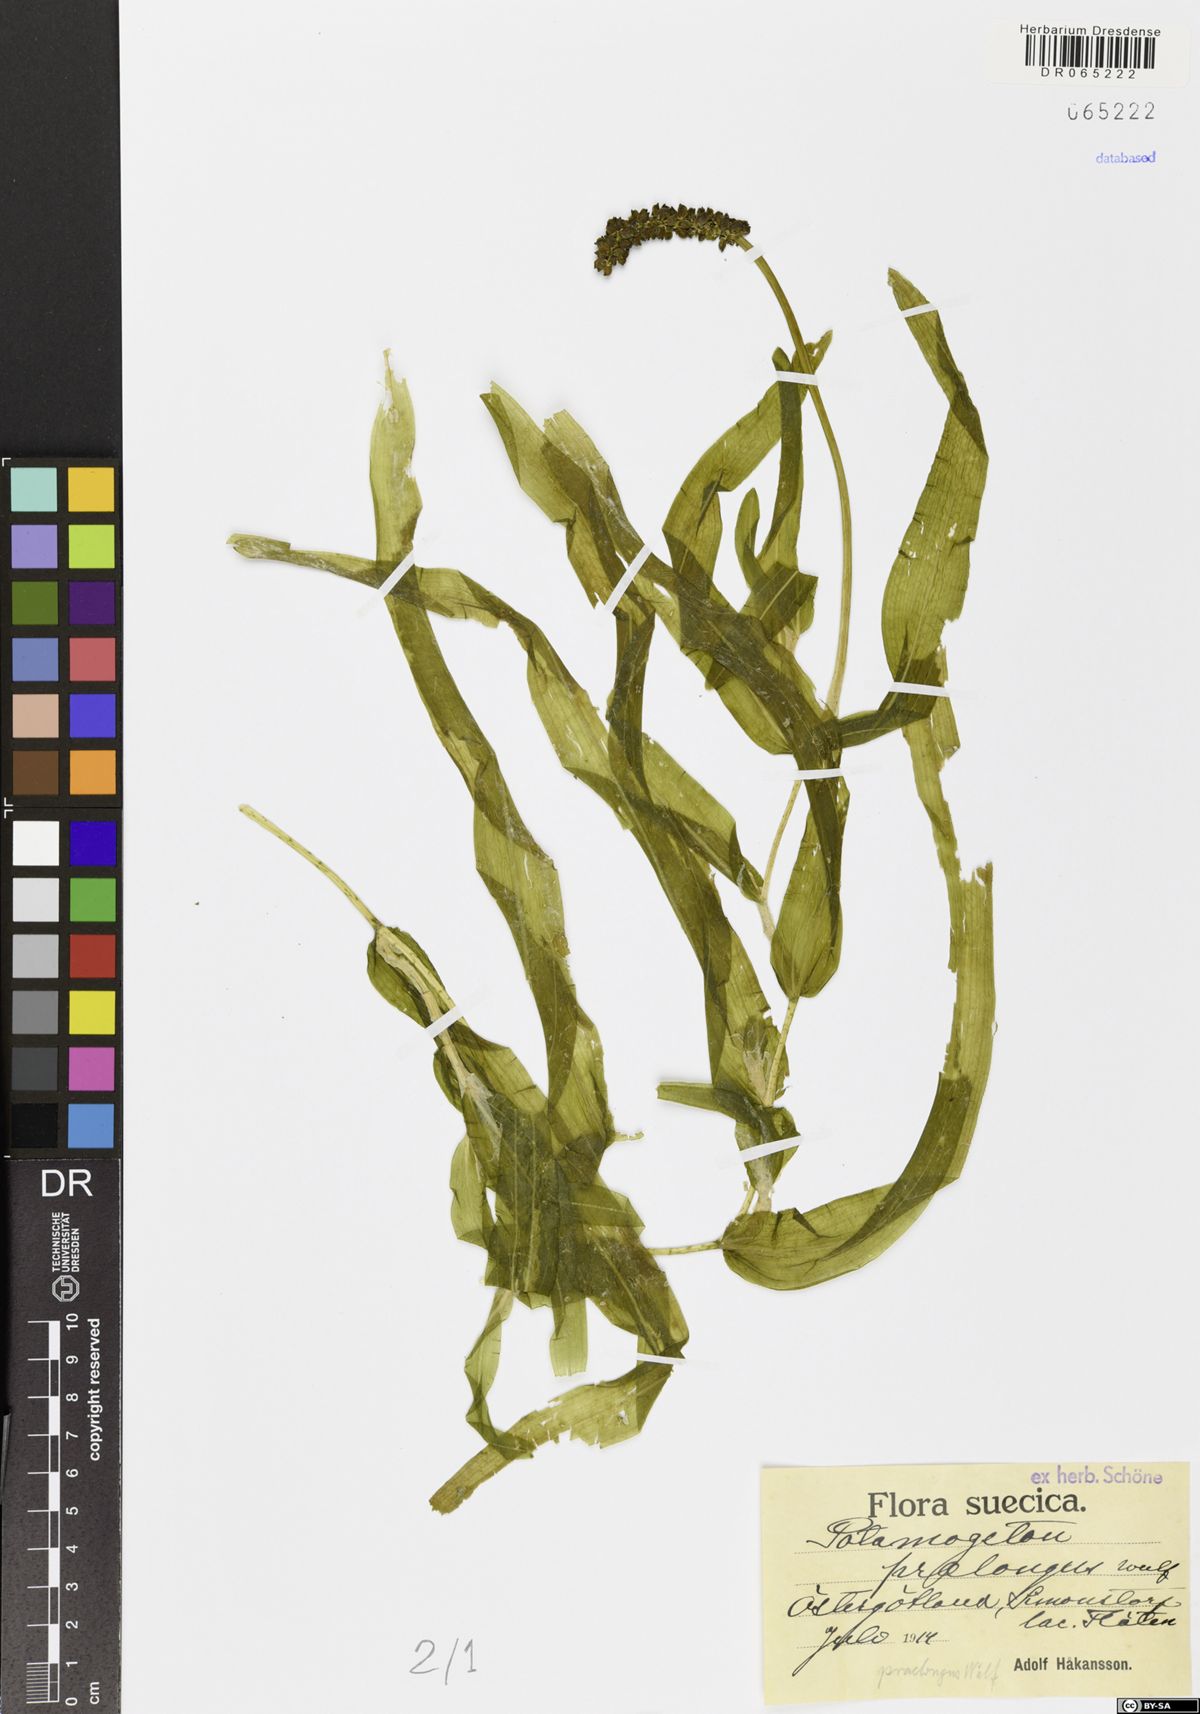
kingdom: Plantae
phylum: Tracheophyta
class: Liliopsida
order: Alismatales
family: Potamogetonaceae
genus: Potamogeton
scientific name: Potamogeton praelongus
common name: Long-stalked pondweed
